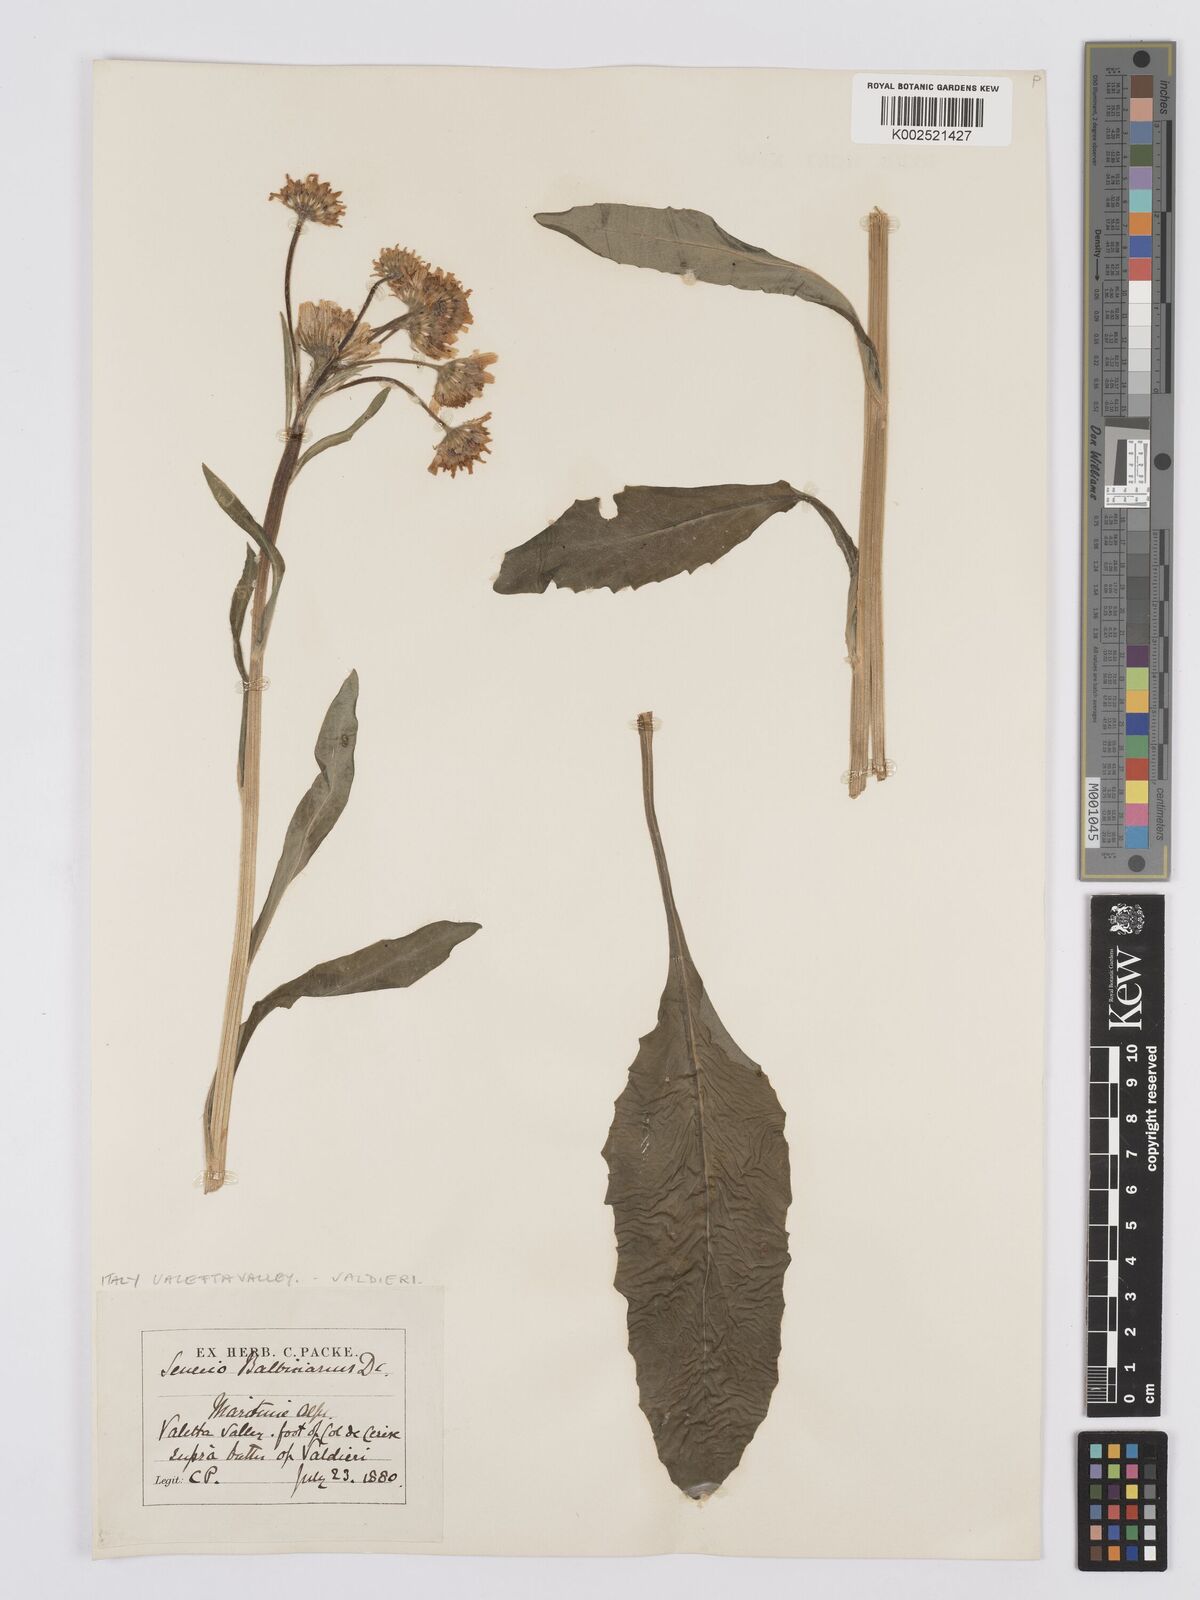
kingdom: Plantae
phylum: Tracheophyta
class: Magnoliopsida
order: Asterales
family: Asteraceae
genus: Tephroseris
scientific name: Tephroseris balbisiana
